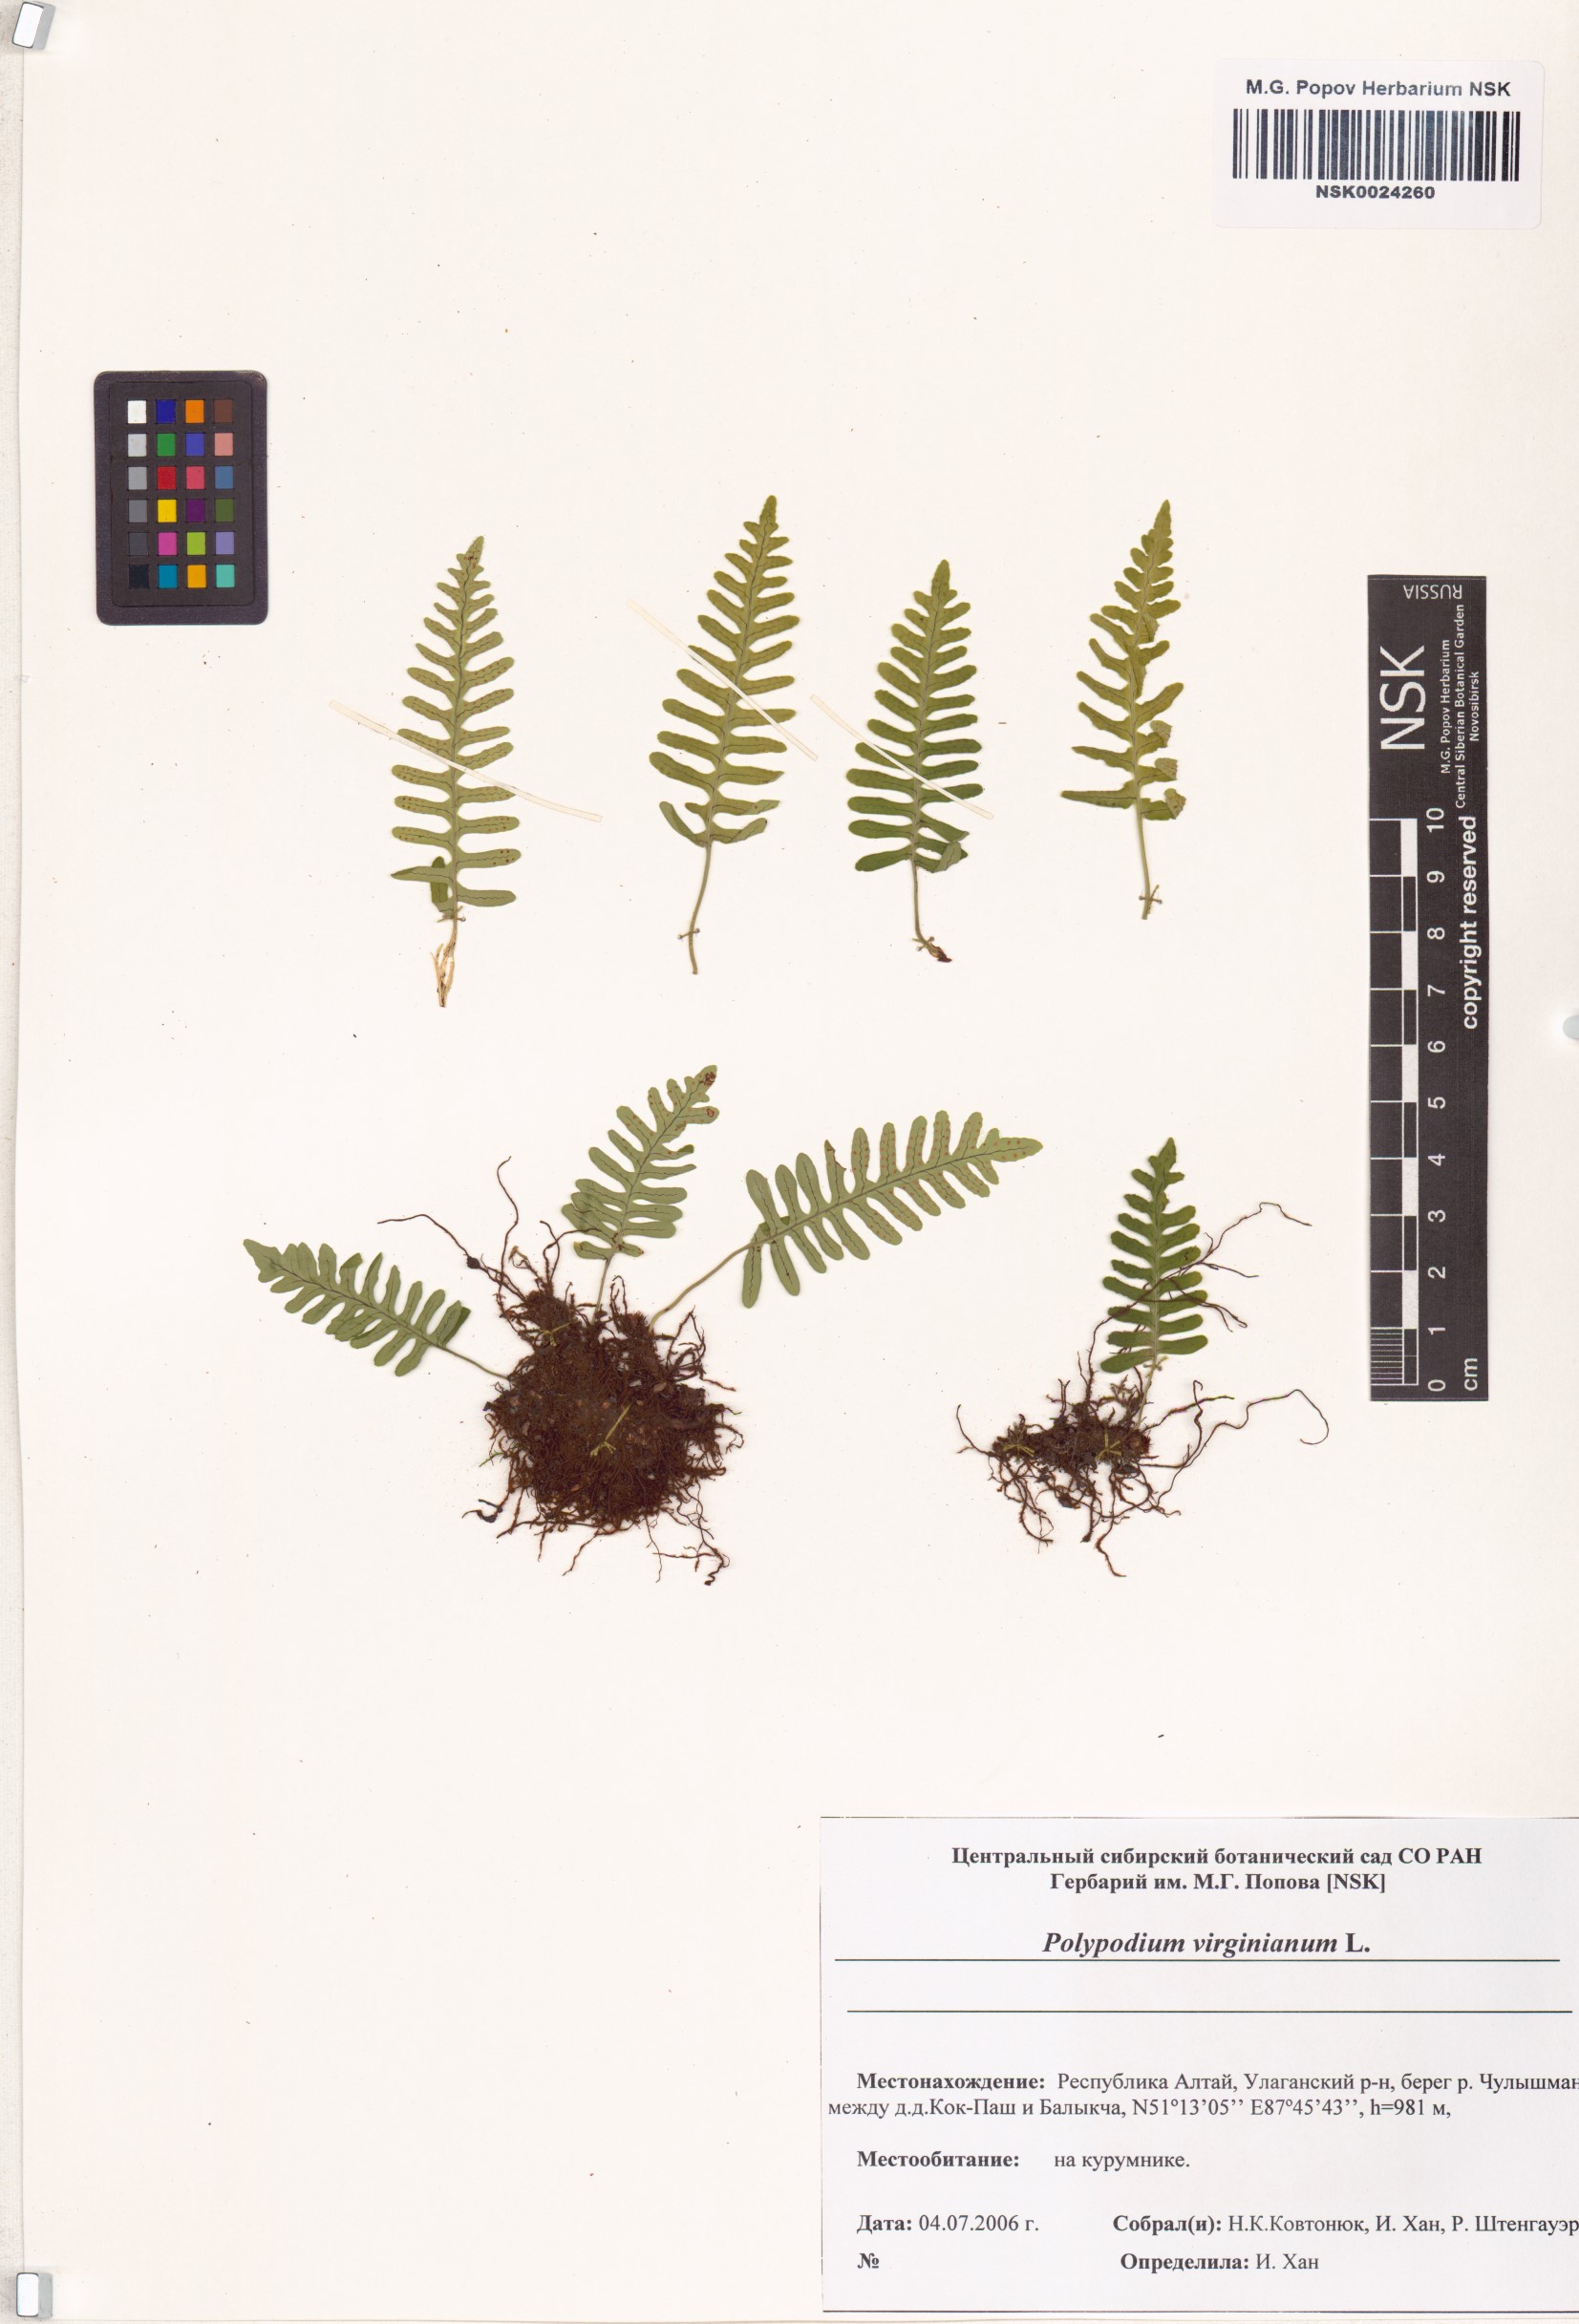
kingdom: Plantae
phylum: Tracheophyta
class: Polypodiopsida
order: Polypodiales
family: Polypodiaceae
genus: Polypodium
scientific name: Polypodium virginianum
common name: American wall fern
